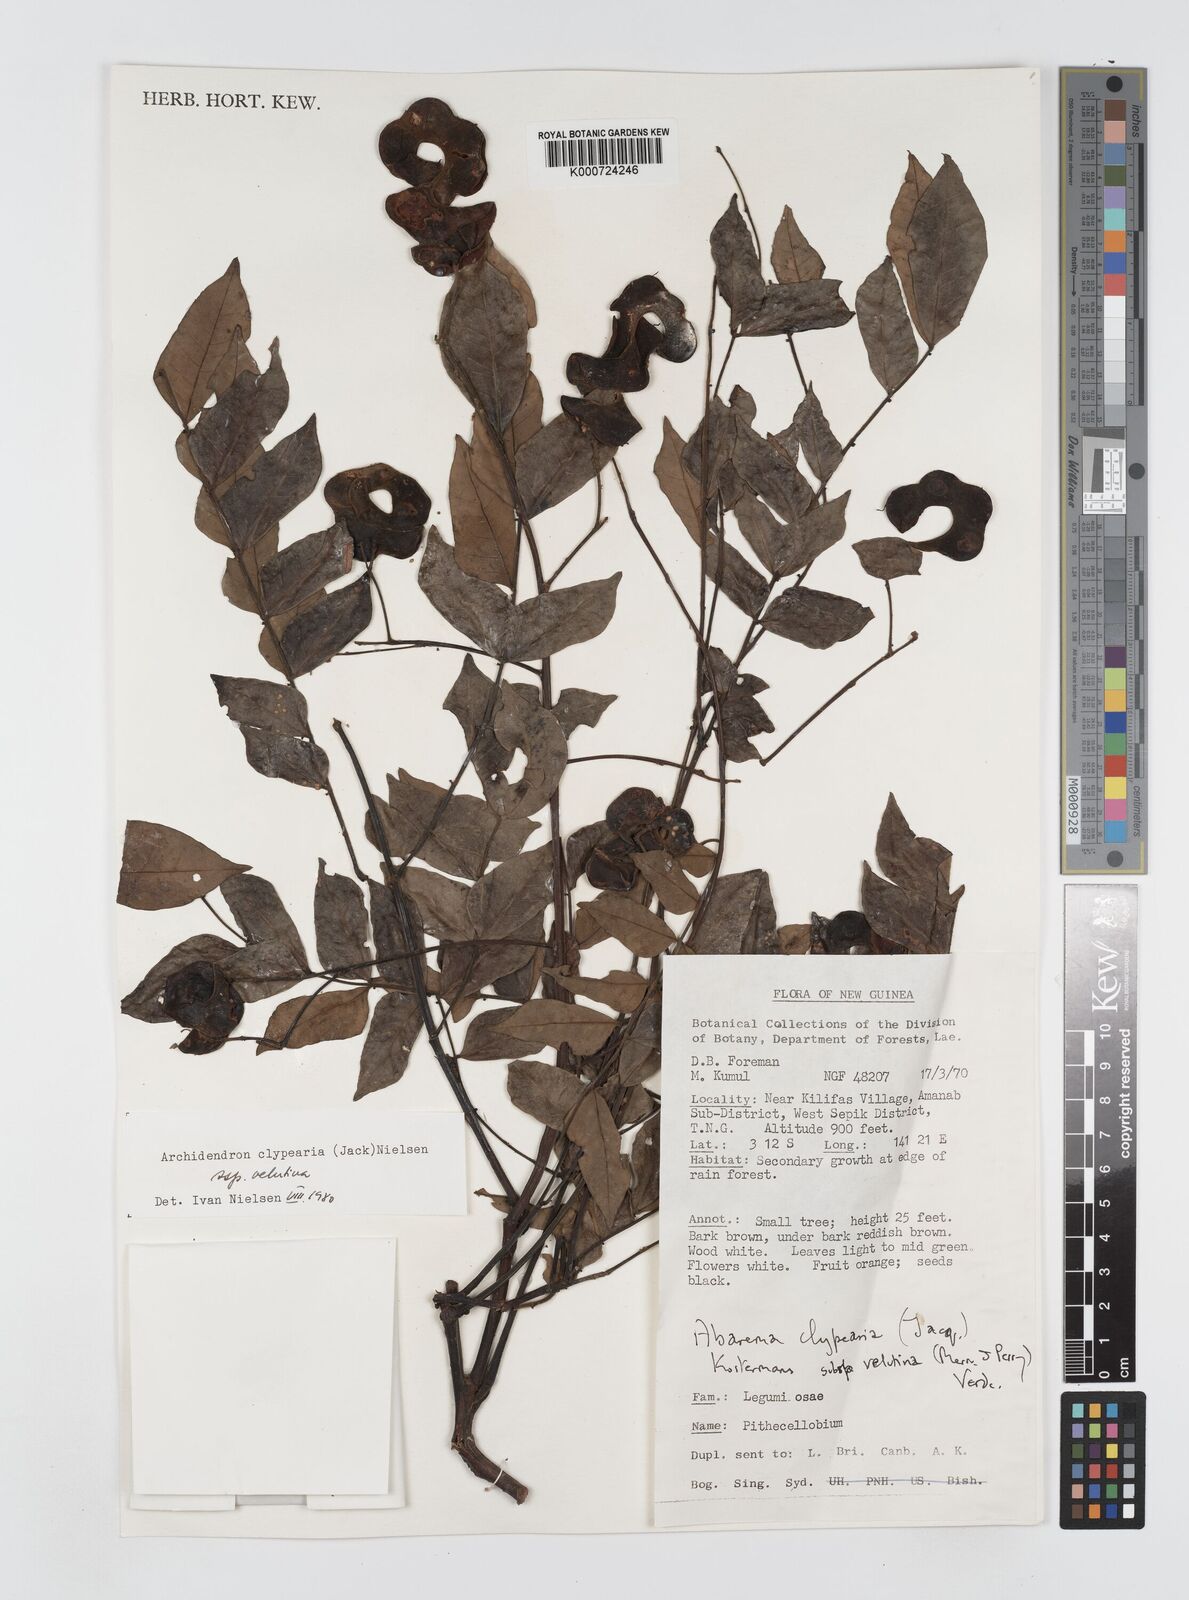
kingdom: Plantae
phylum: Tracheophyta
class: Magnoliopsida
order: Fabales
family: Fabaceae
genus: Archidendron
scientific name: Archidendron clypearia
